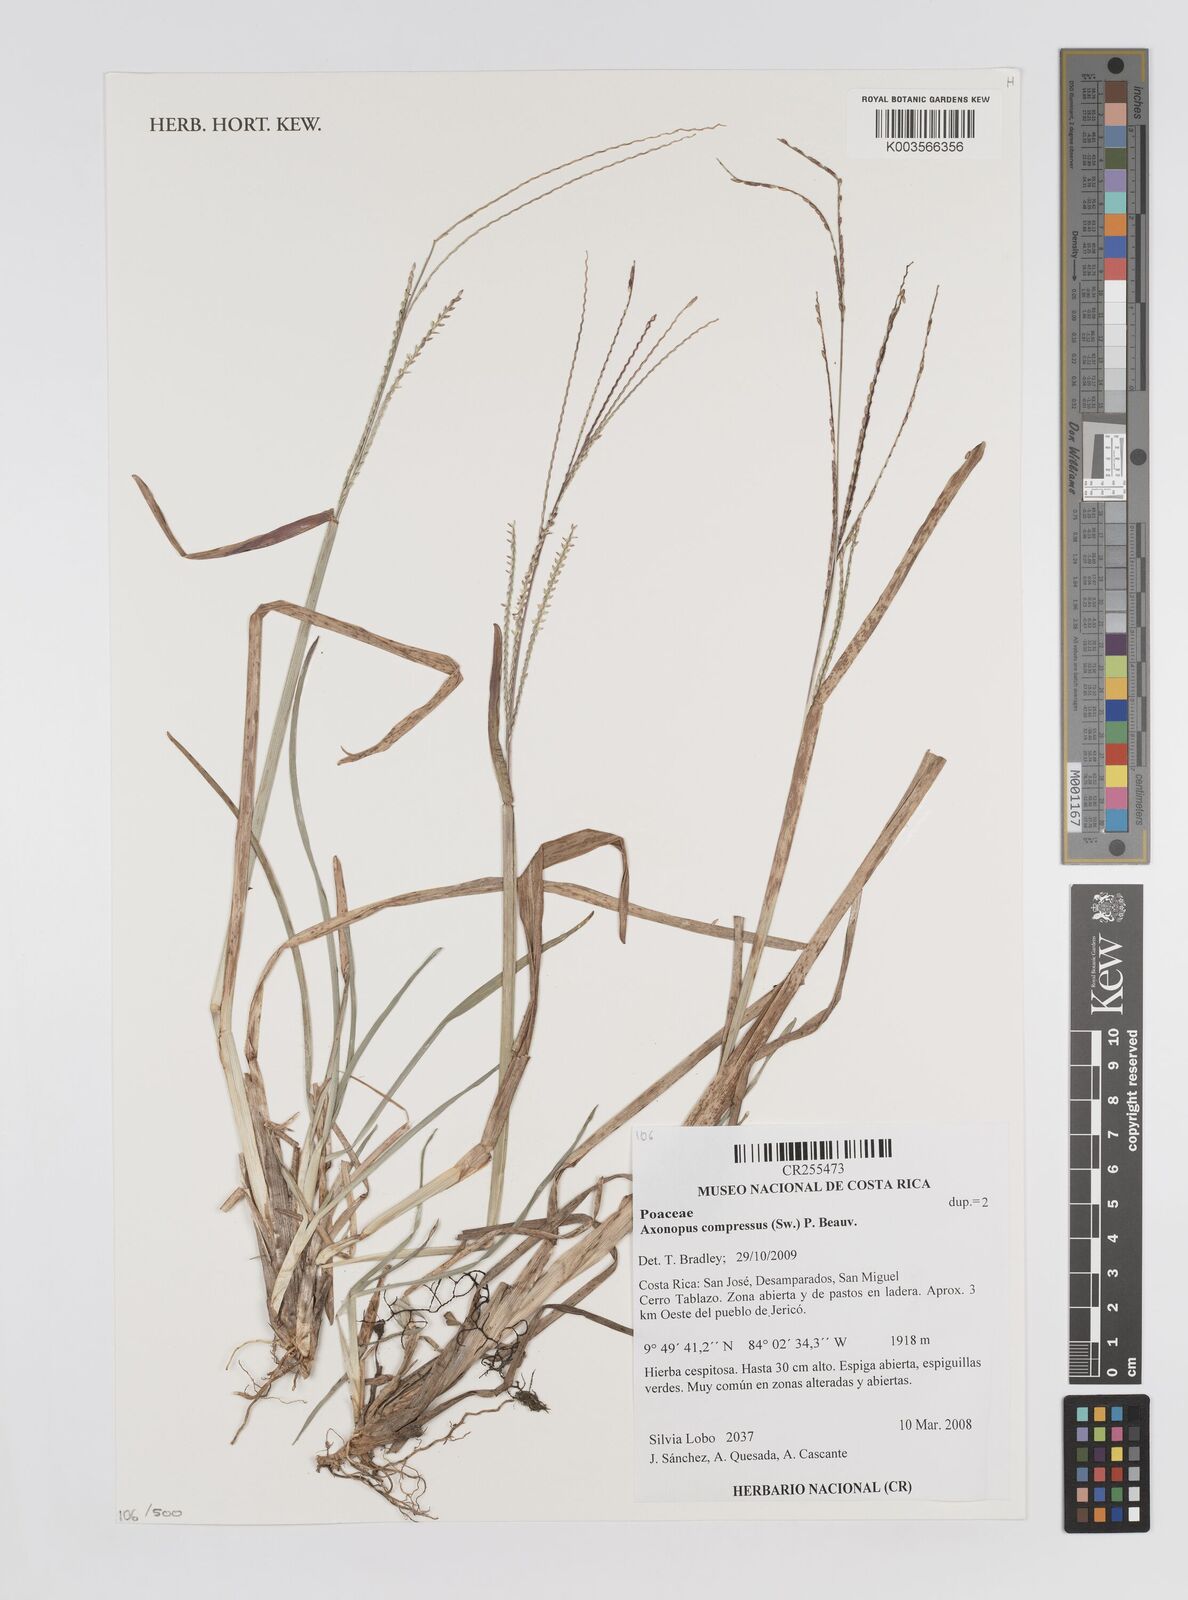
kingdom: Plantae
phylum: Tracheophyta
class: Liliopsida
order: Poales
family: Poaceae
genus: Axonopus
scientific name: Axonopus compressus
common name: American carpet grass
